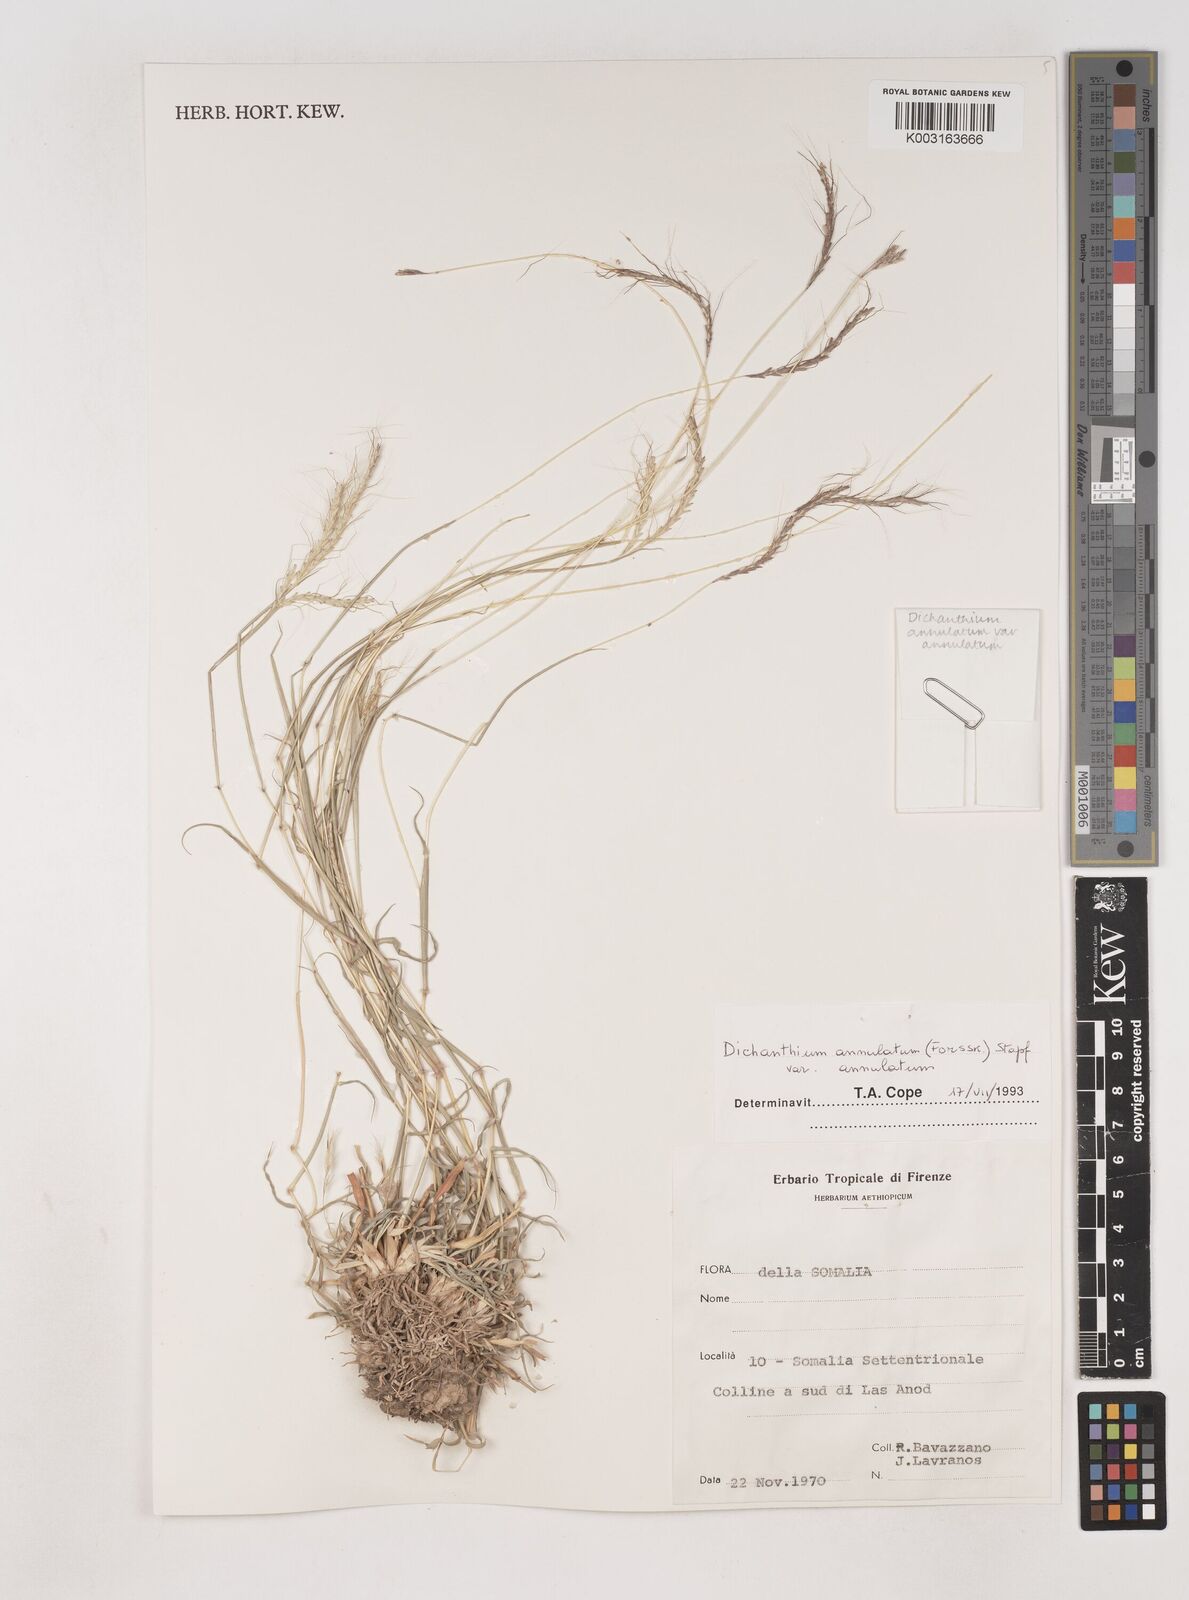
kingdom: Plantae
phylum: Tracheophyta
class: Liliopsida
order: Poales
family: Poaceae
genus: Dichanthium
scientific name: Dichanthium annulatum
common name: Kleberg's bluestem
